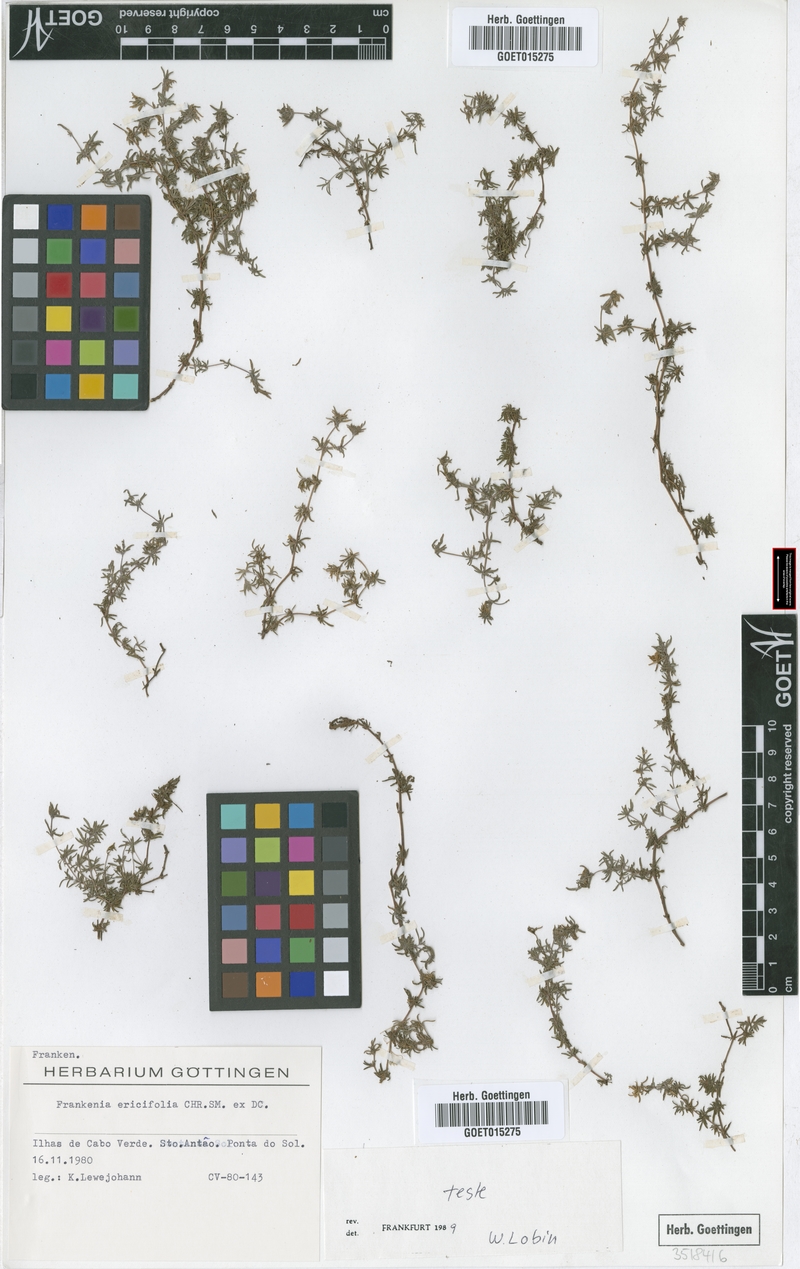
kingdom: Plantae
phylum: Tracheophyta
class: Magnoliopsida
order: Caryophyllales
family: Frankeniaceae
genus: Frankenia
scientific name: Frankenia ericifolia
